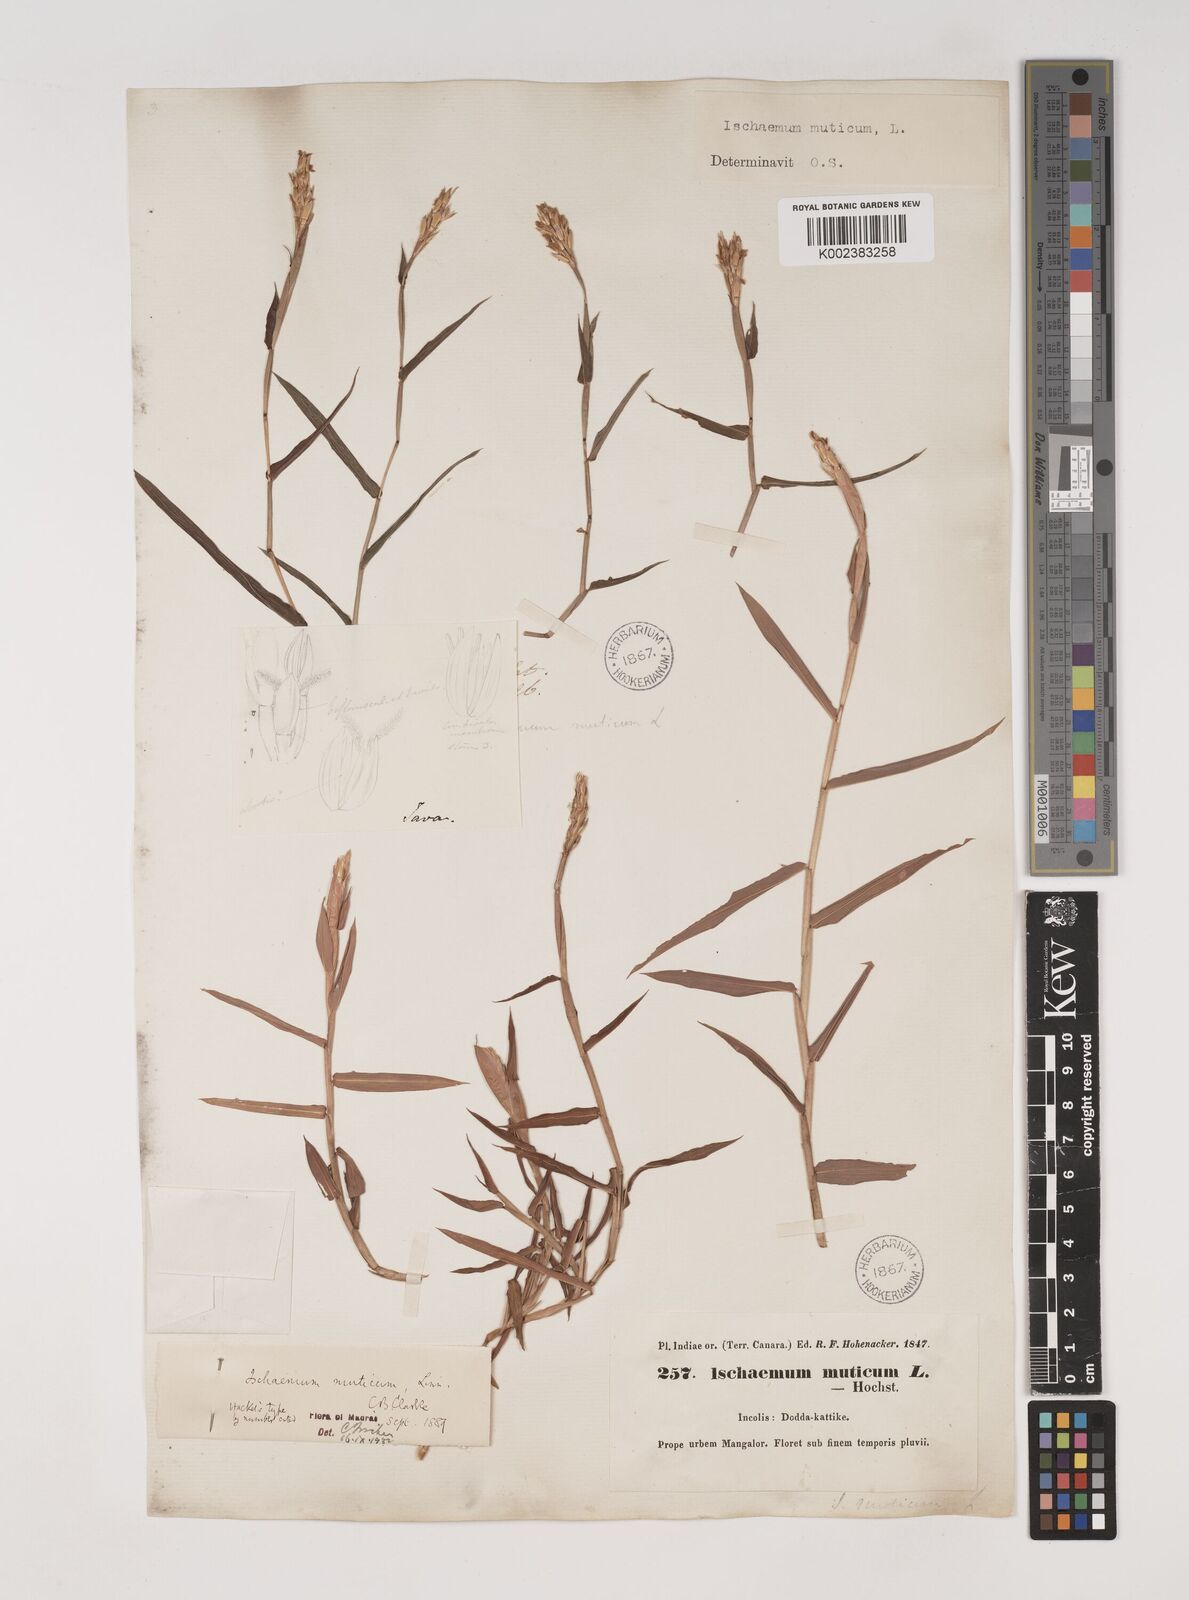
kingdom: Plantae
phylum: Tracheophyta
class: Liliopsida
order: Poales
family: Poaceae
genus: Ischaemum
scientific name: Ischaemum muticum
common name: Drought grass
